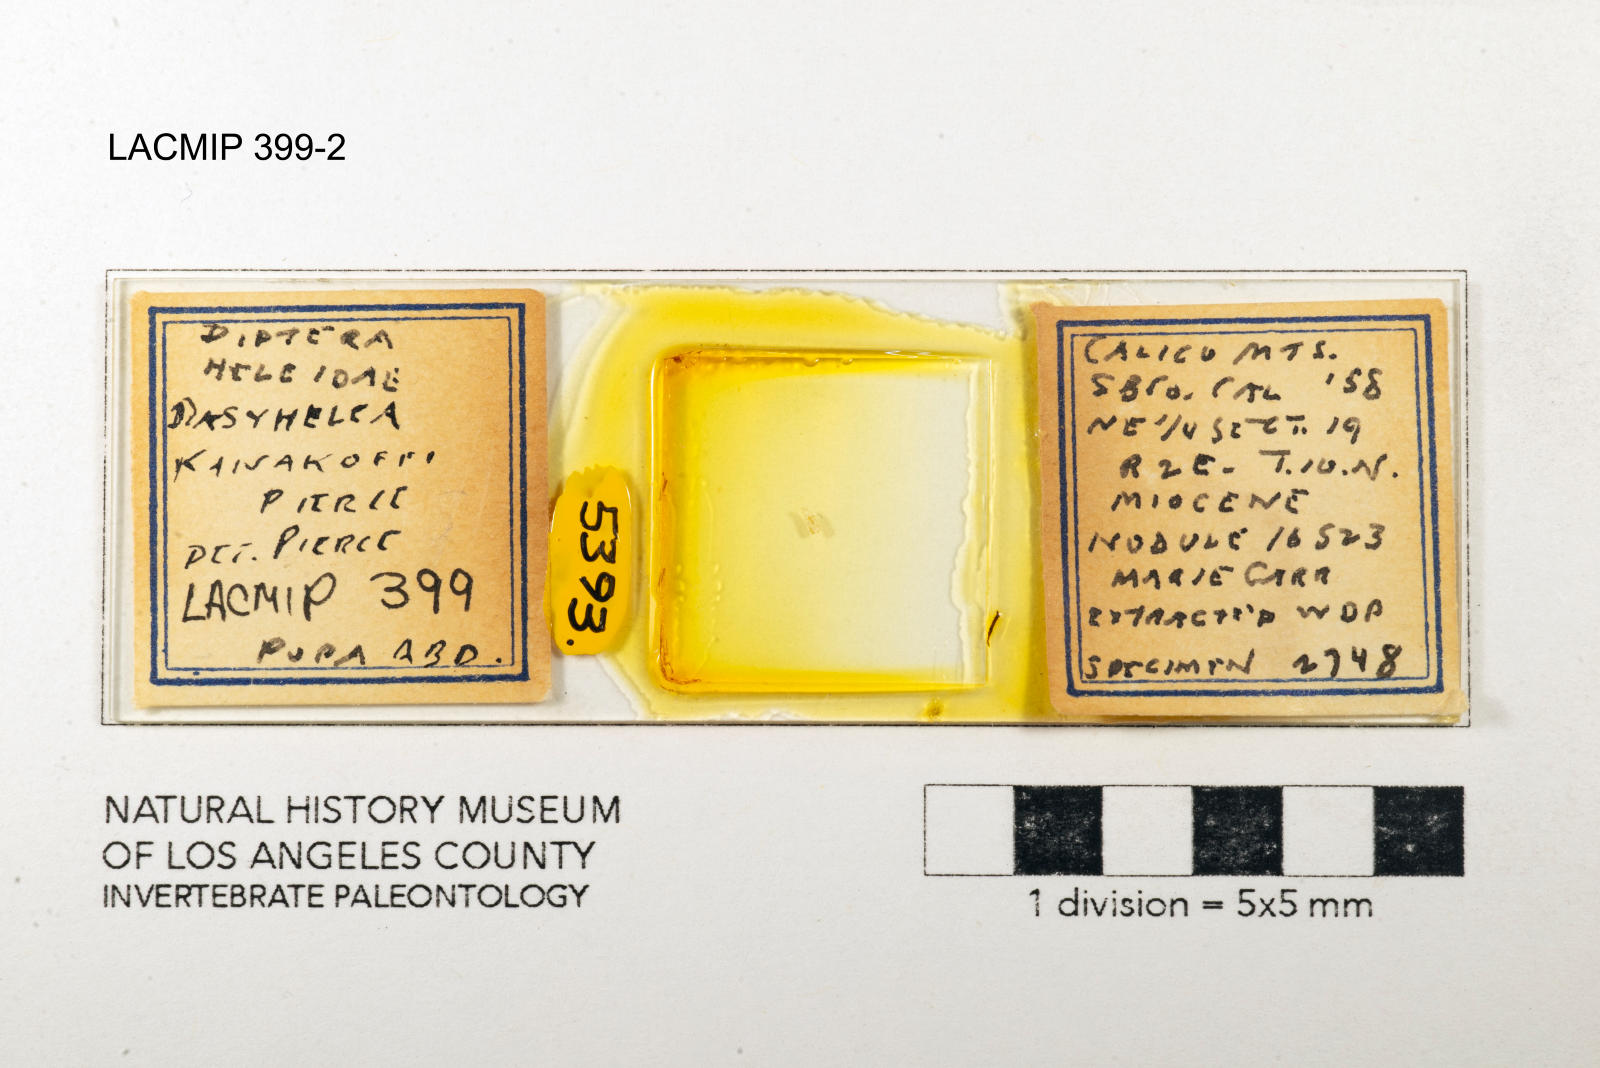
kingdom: Animalia
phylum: Arthropoda
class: Insecta
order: Diptera
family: Ceratopogonidae
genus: Dasyhelea
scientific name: Dasyhelea kanakoffi
